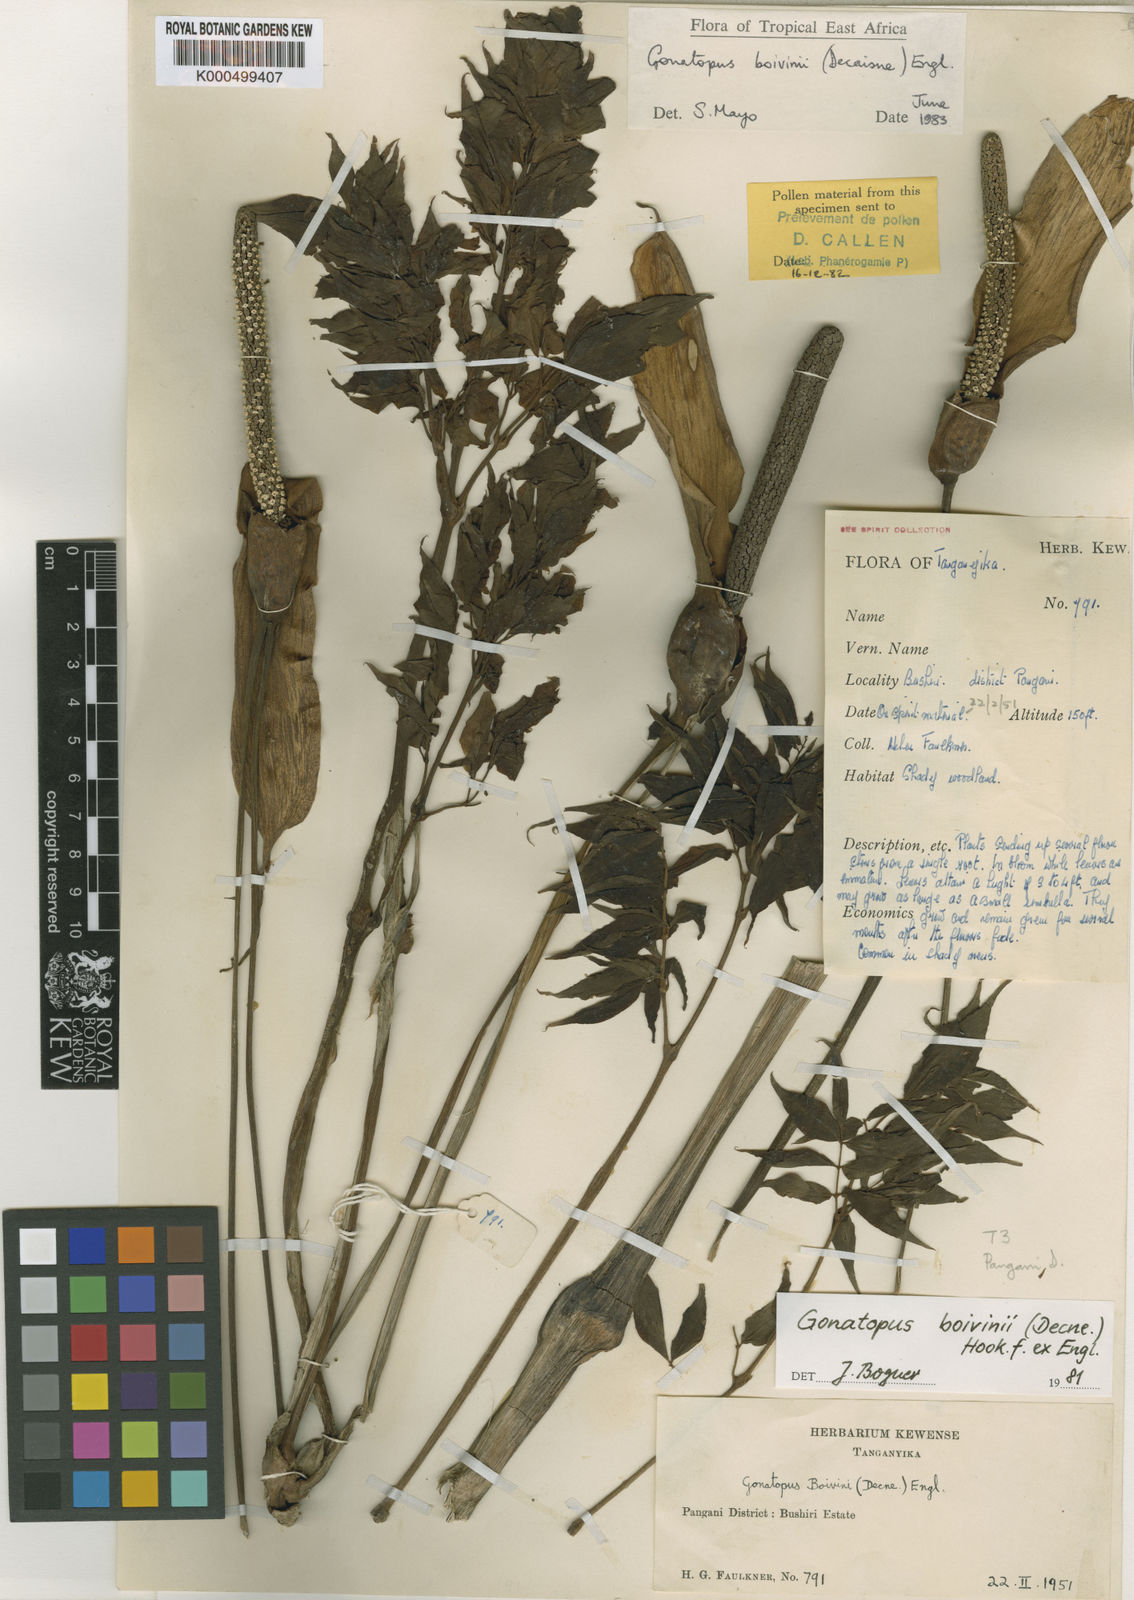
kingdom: Plantae
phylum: Tracheophyta
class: Liliopsida
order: Alismatales
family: Araceae
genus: Gonatopus
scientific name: Gonatopus
